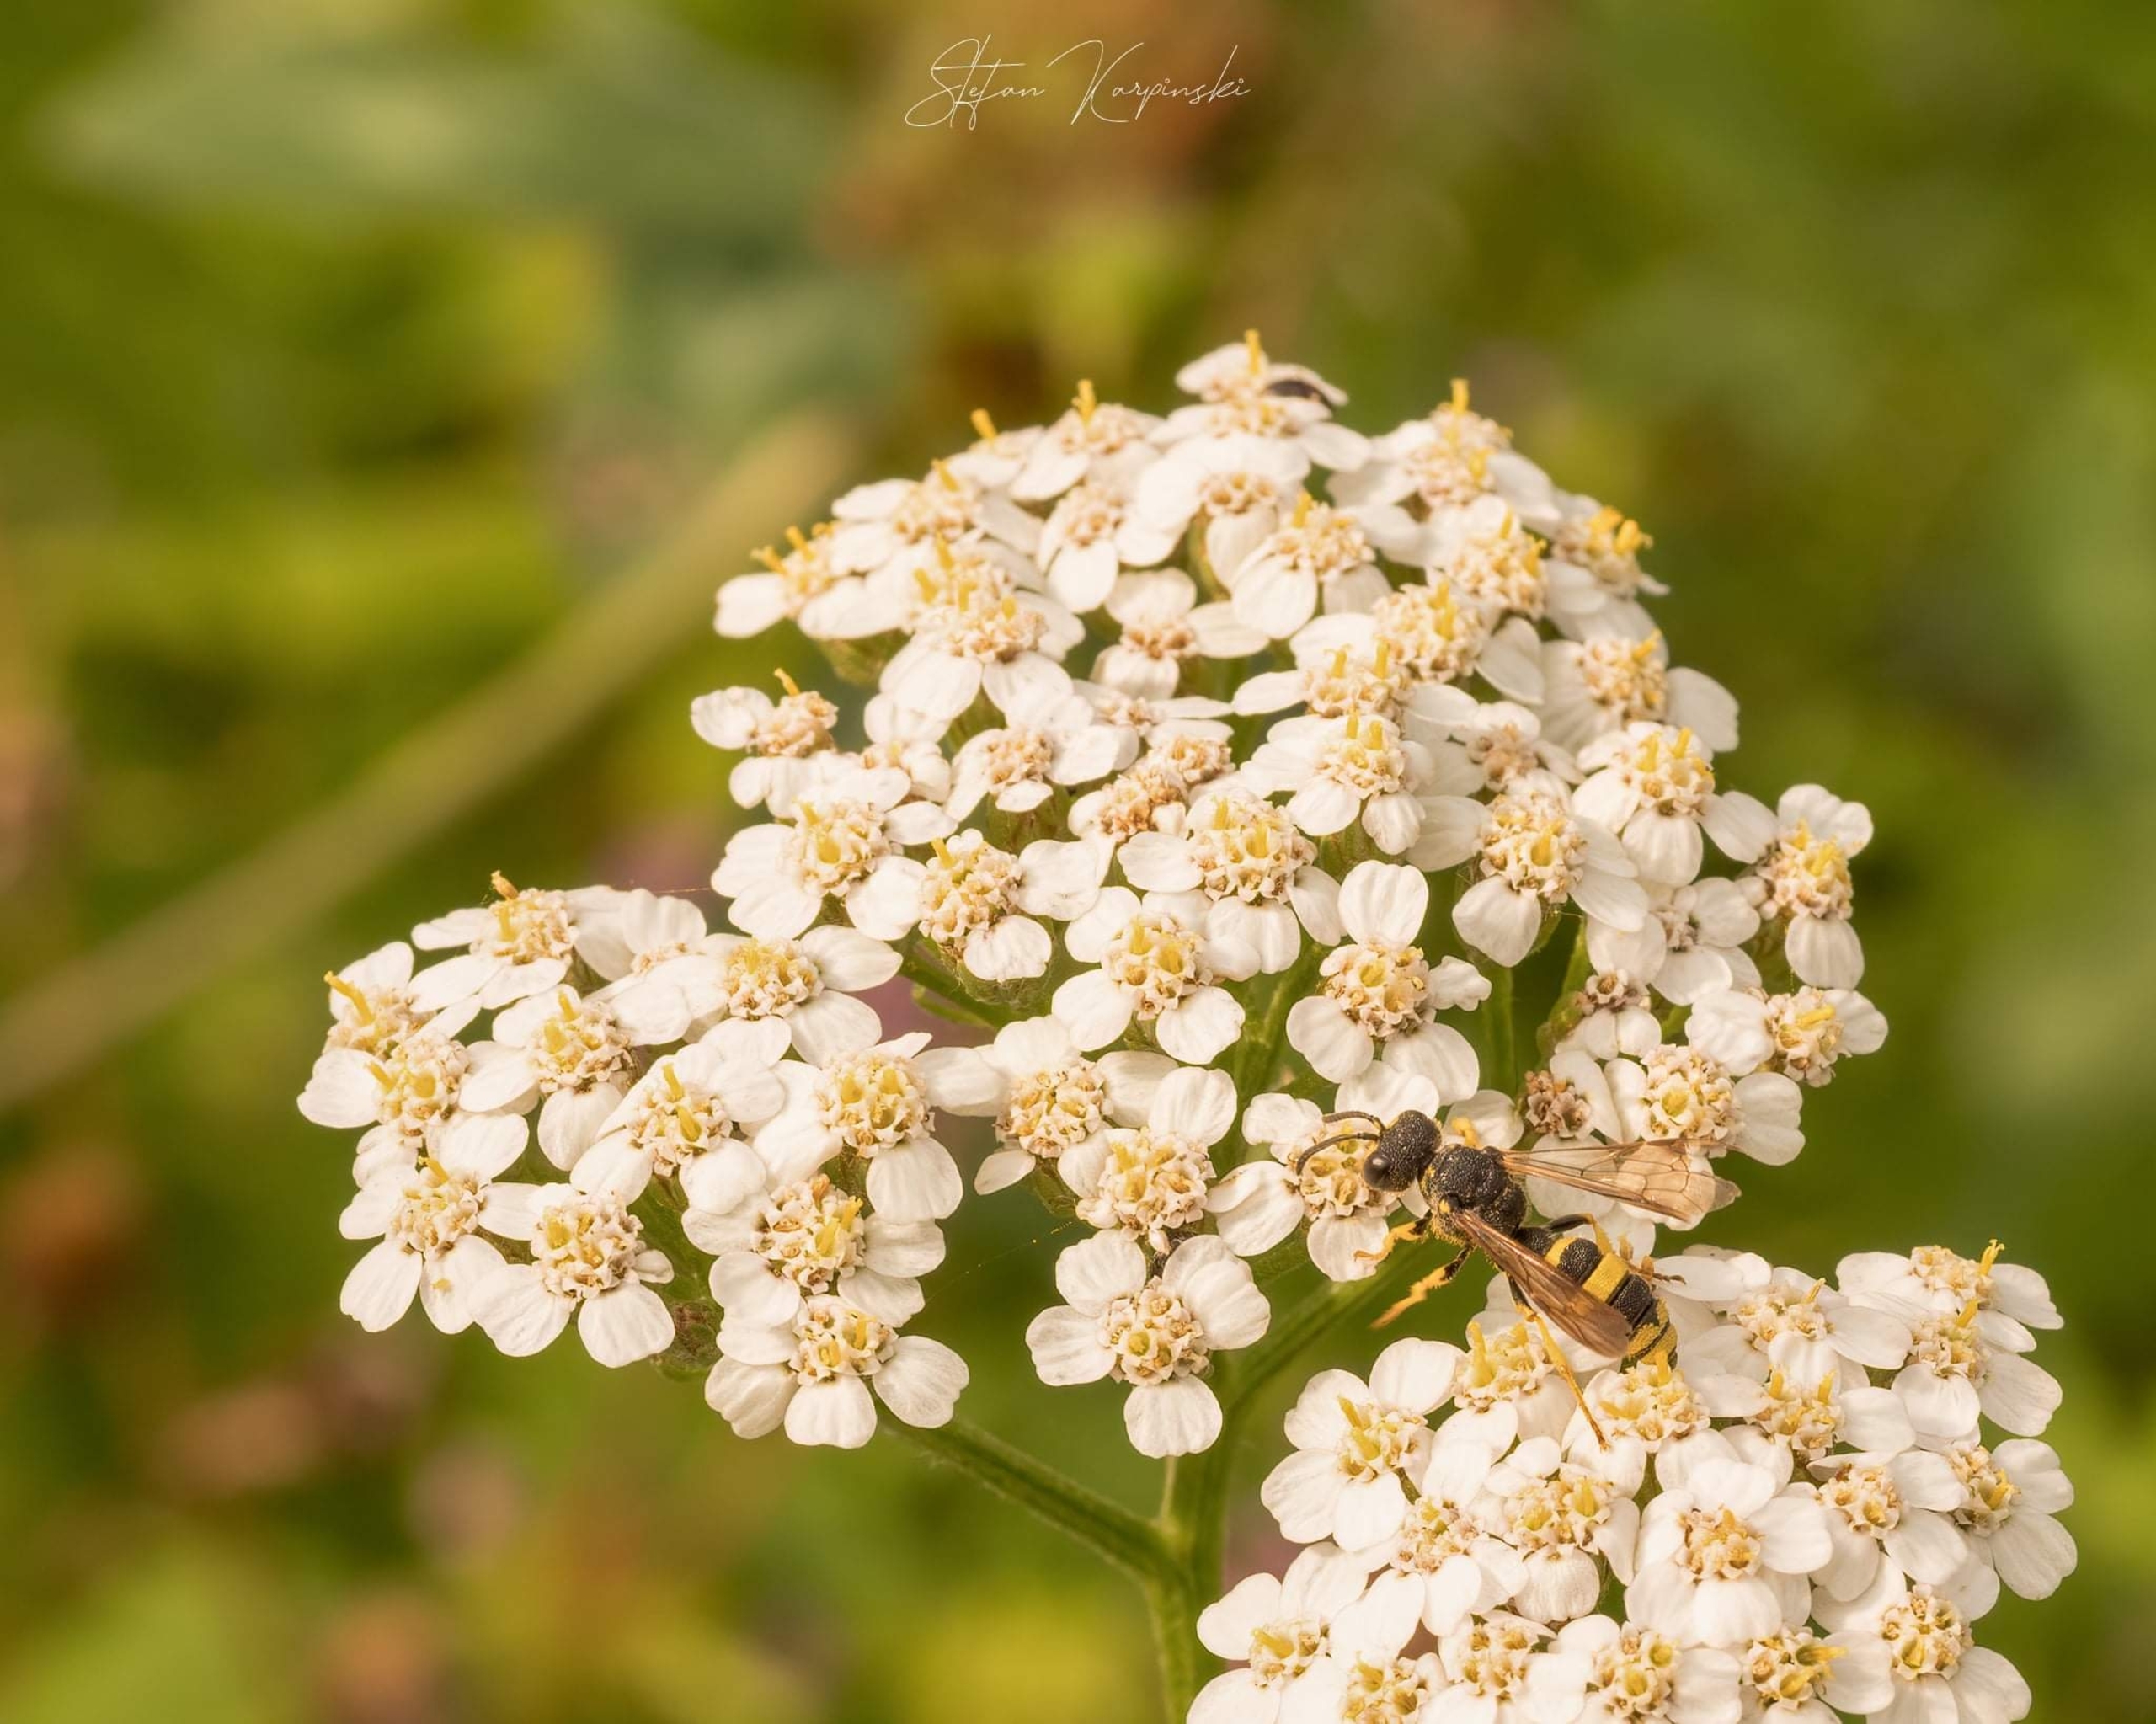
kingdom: Animalia
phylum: Arthropoda
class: Insecta
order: Hymenoptera
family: Crabronidae
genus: Cerceris
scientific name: Cerceris rybyensis
